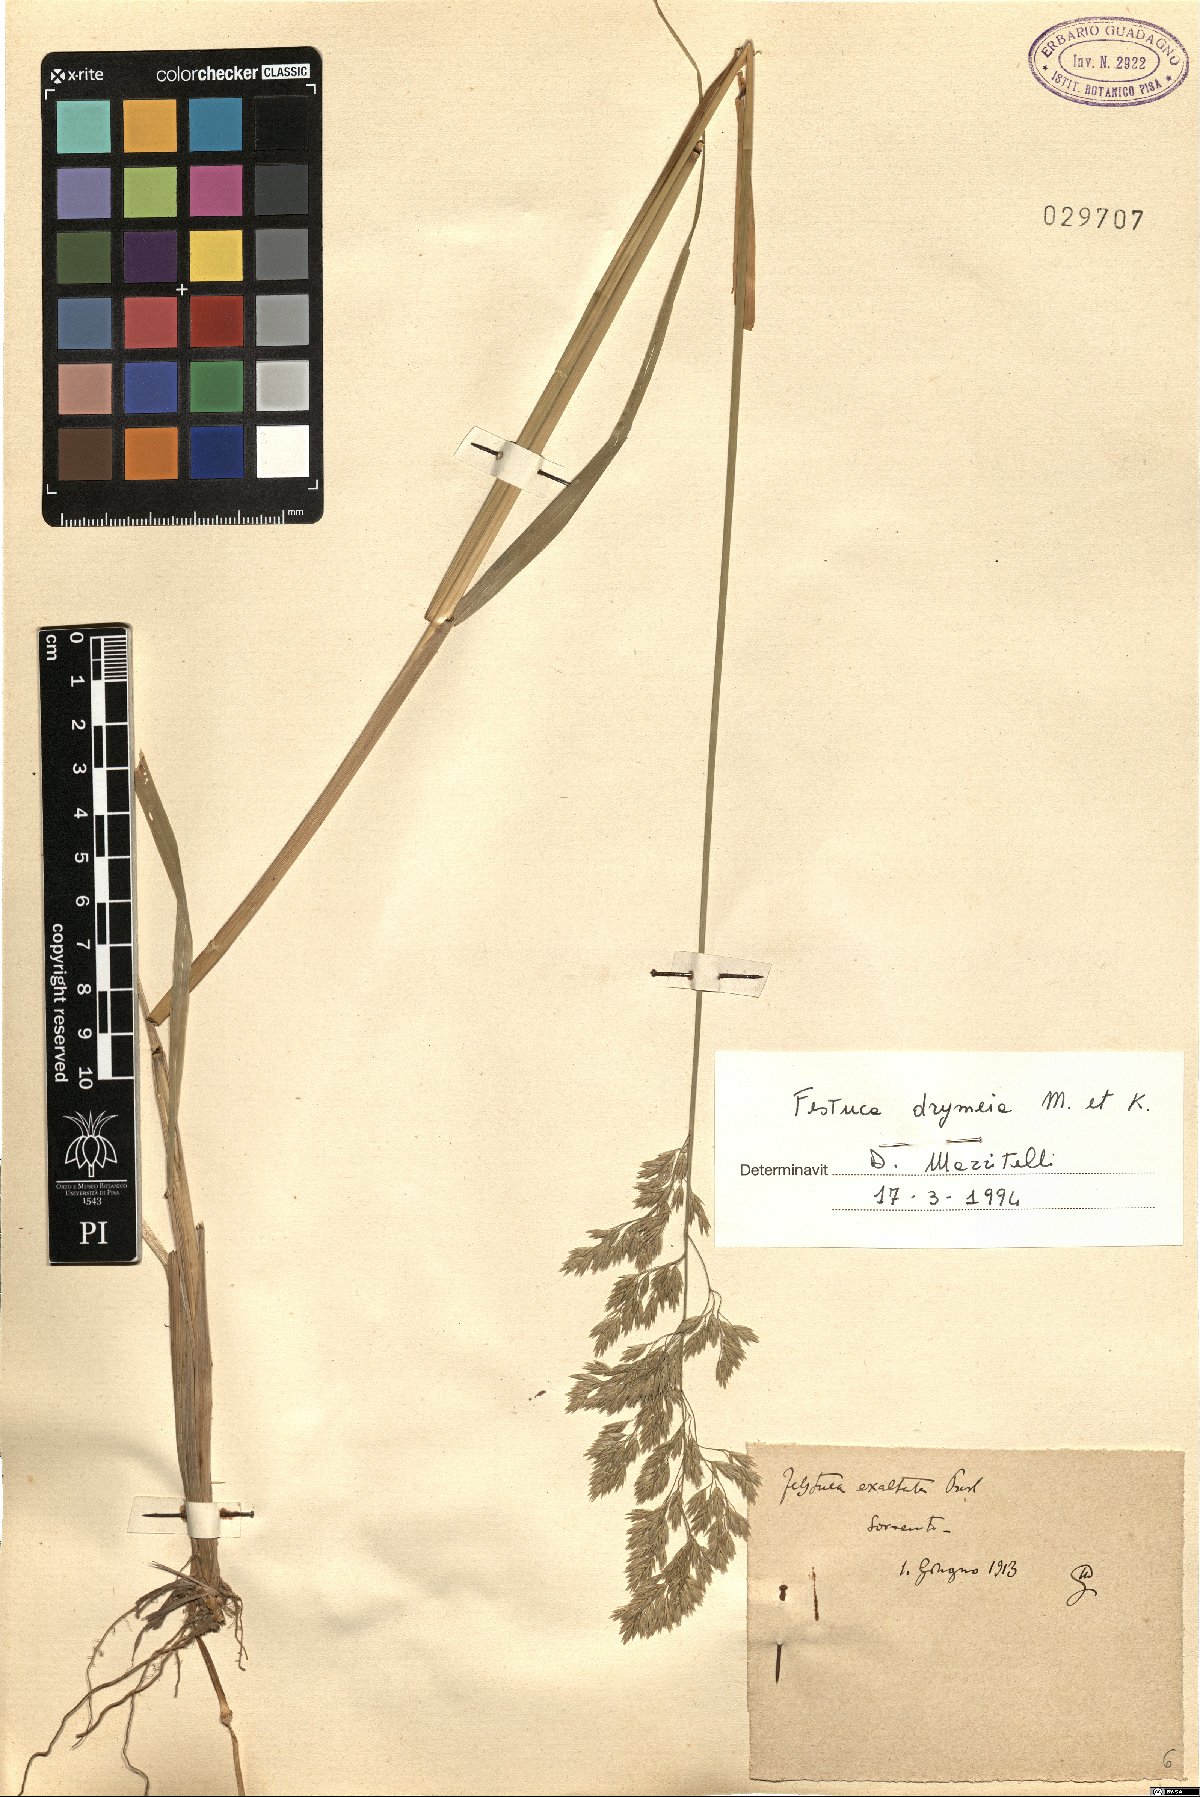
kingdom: Plantae
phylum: Tracheophyta
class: Liliopsida
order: Poales
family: Poaceae
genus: Festuca
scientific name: Festuca drymeja
